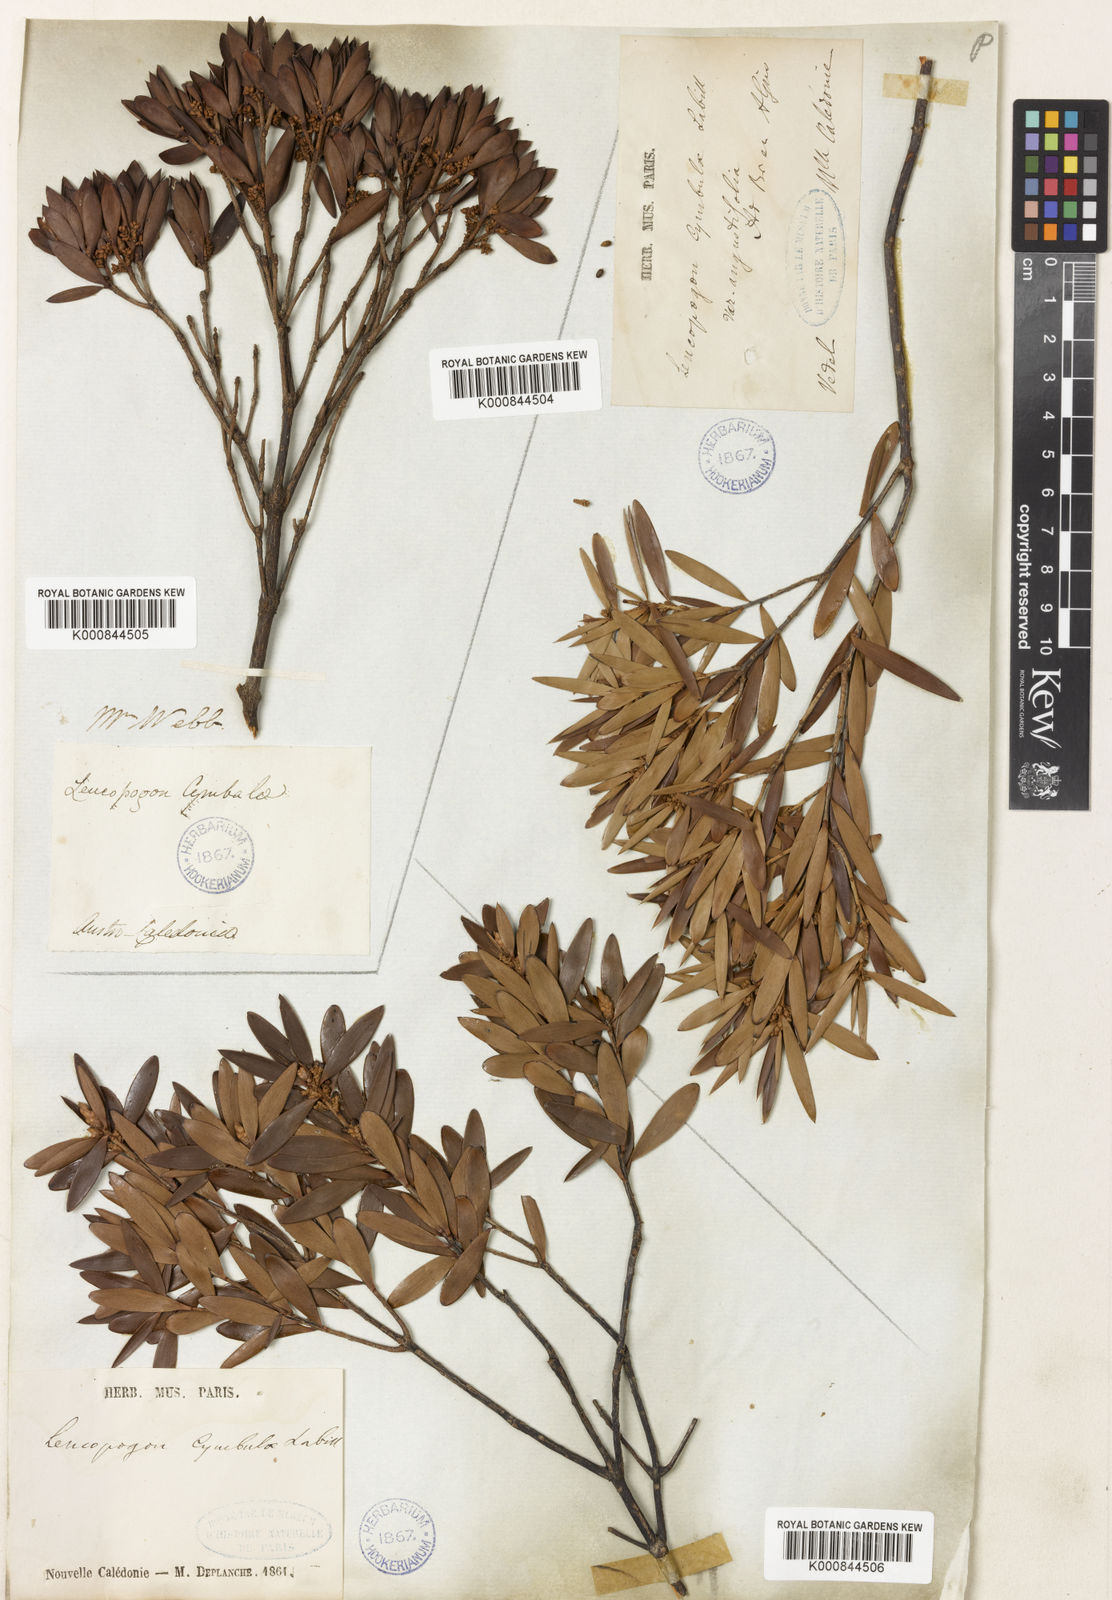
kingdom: Plantae
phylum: Tracheophyta
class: Magnoliopsida
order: Ericales
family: Ericaceae
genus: Styphelia
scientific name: Styphelia cymbulae
